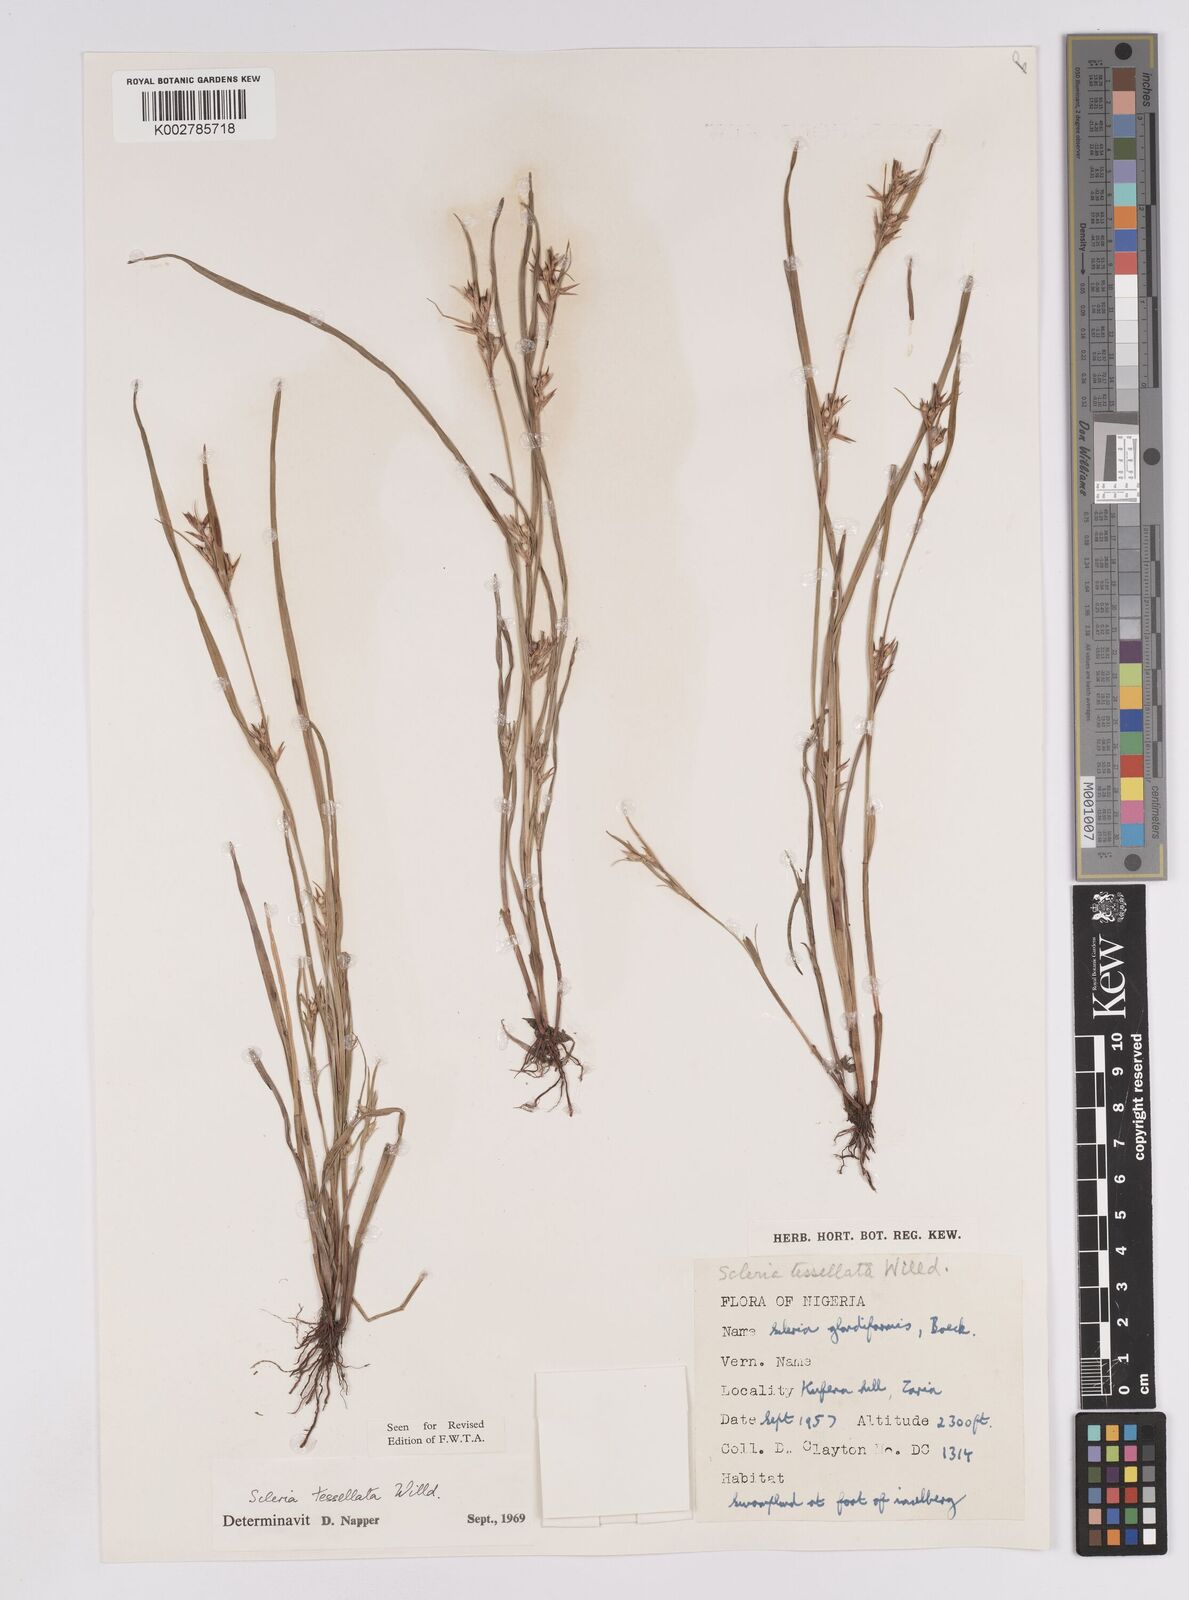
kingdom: Plantae
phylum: Tracheophyta
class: Liliopsida
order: Poales
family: Cyperaceae
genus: Scleria
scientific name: Scleria tessellata
